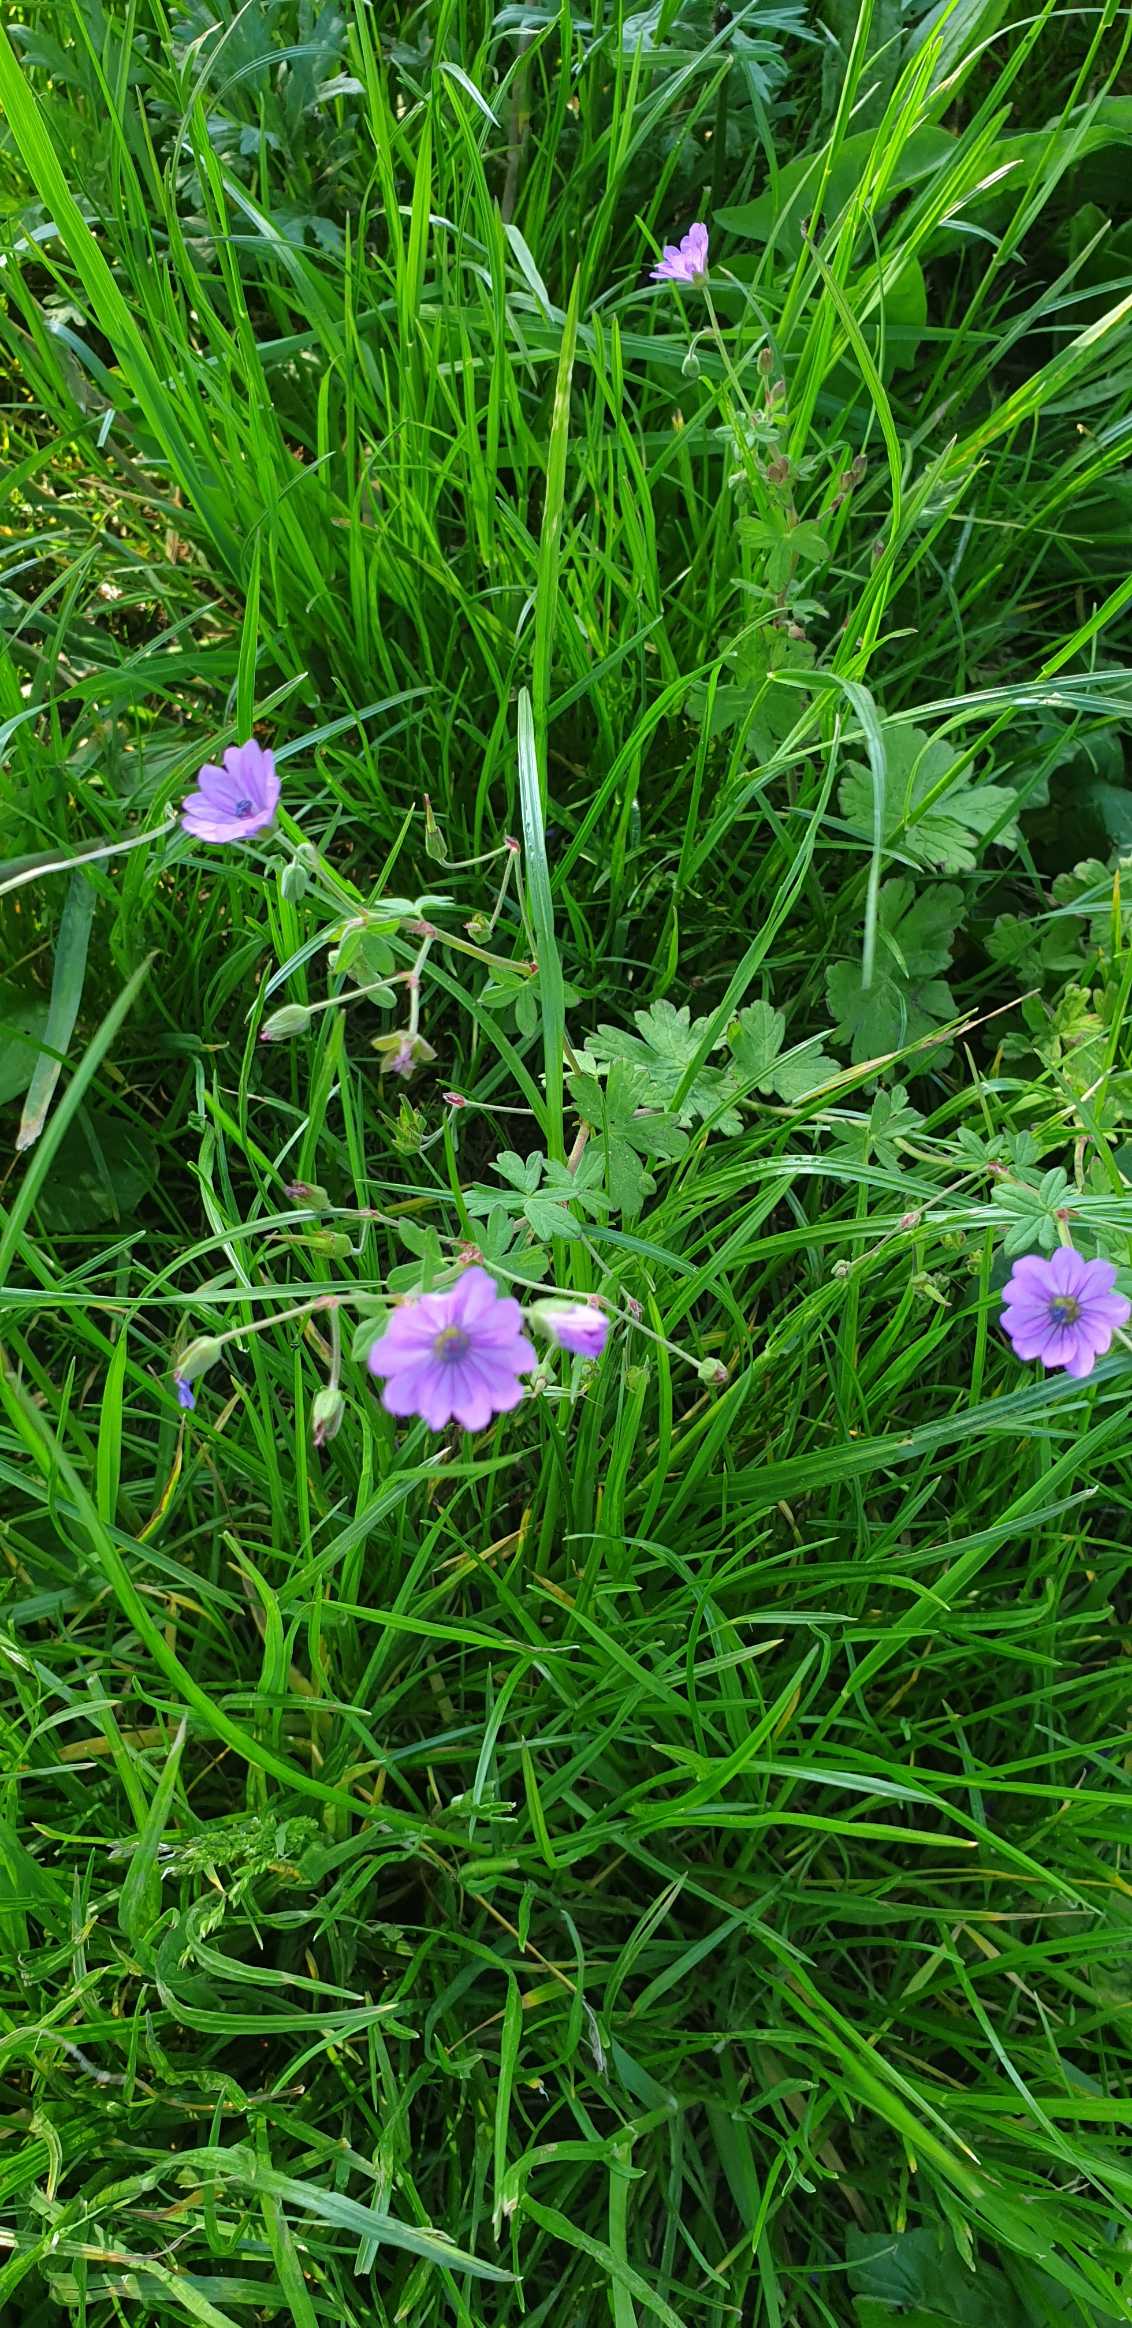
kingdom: Plantae
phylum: Tracheophyta
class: Magnoliopsida
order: Geraniales
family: Geraniaceae
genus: Geranium
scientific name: Geranium pyrenaicum
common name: Pyrenæisk storkenæb
